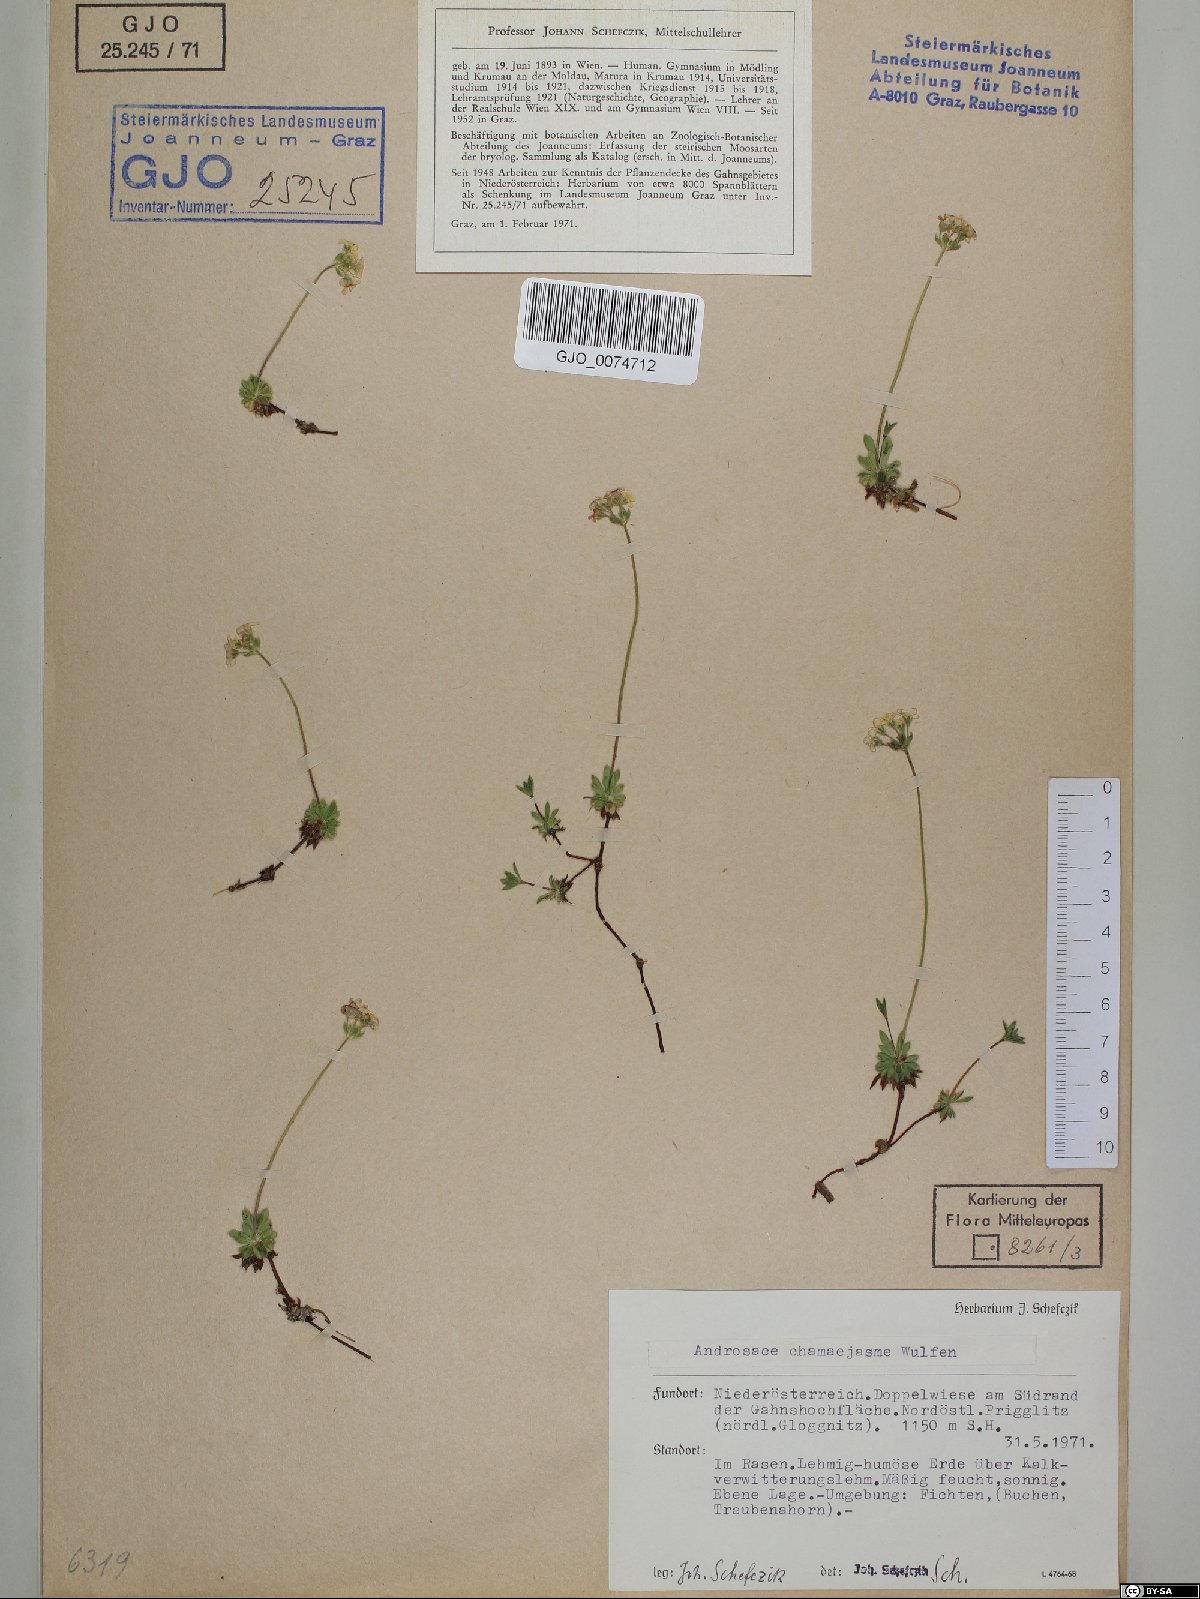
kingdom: Plantae
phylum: Tracheophyta
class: Magnoliopsida
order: Ericales
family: Primulaceae
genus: Androsace
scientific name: Androsace chamaejasme
